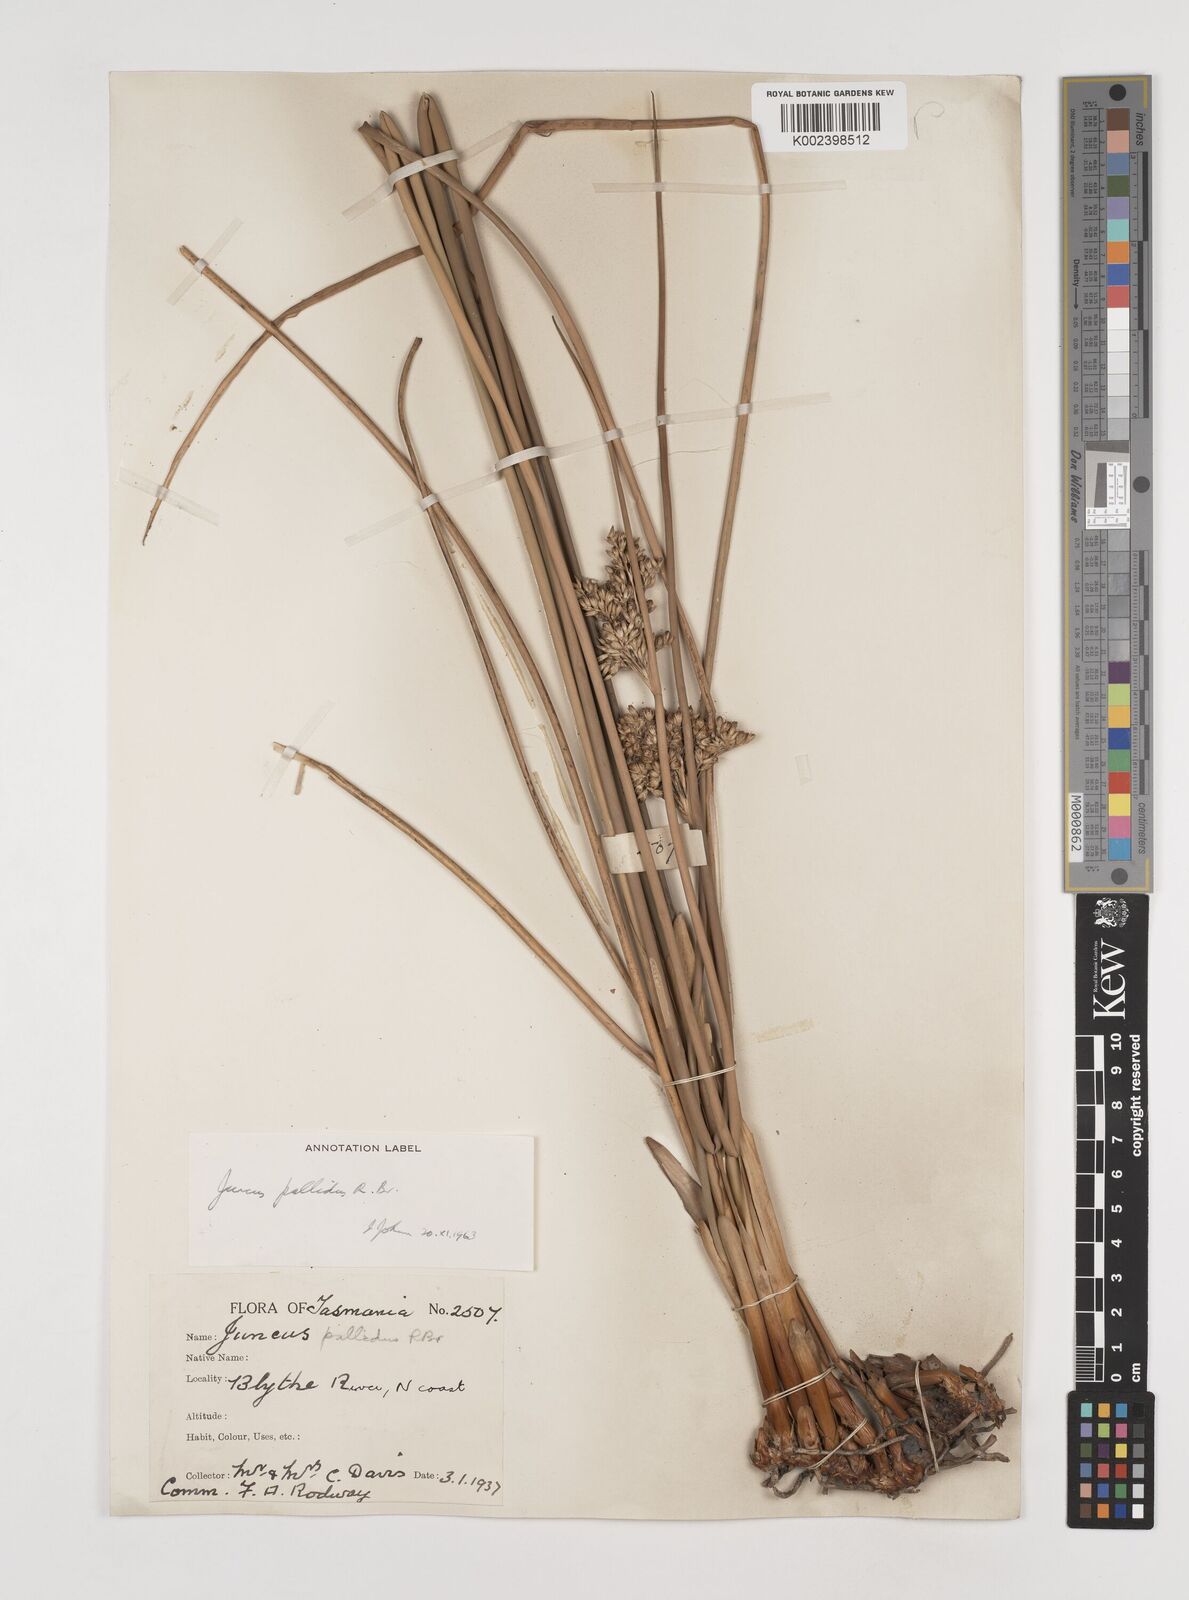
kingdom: Plantae
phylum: Tracheophyta
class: Liliopsida
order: Poales
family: Juncaceae
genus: Juncus
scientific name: Juncus pallidus
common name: Great soft-rush
